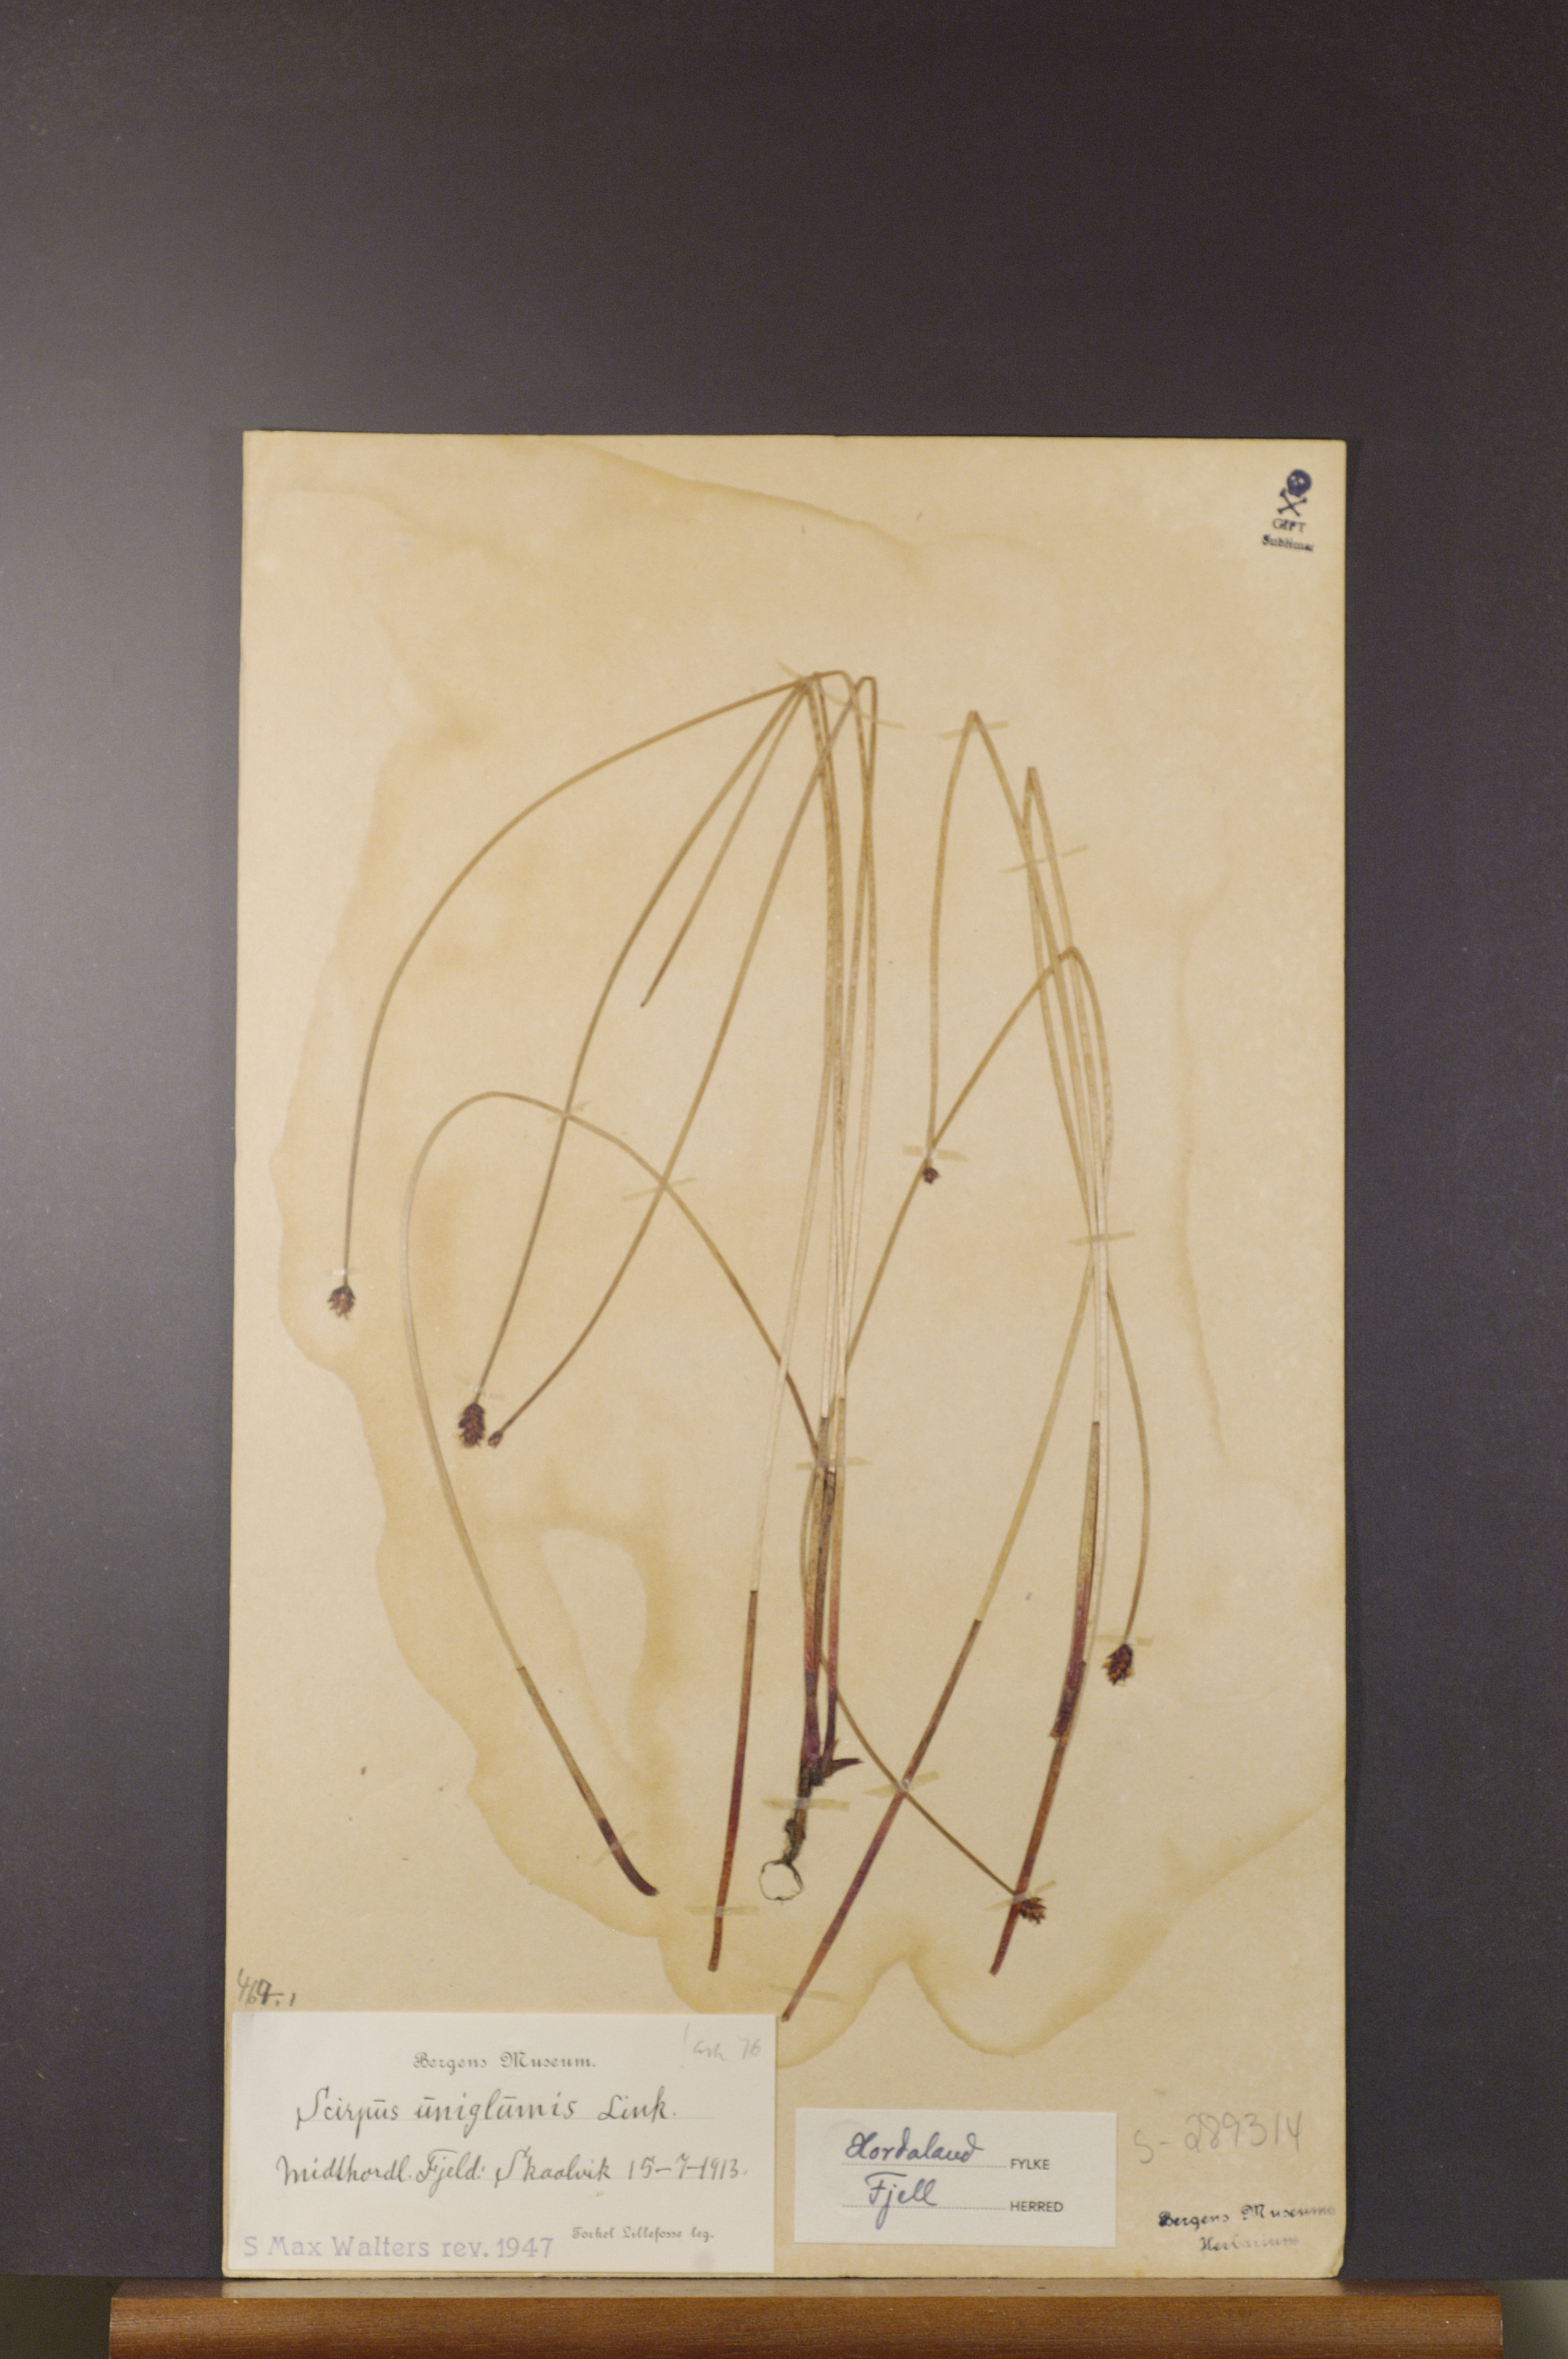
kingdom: Plantae
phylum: Tracheophyta
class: Liliopsida
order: Poales
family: Cyperaceae
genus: Eleocharis
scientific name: Eleocharis uniglumis
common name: Slender spike-rush
